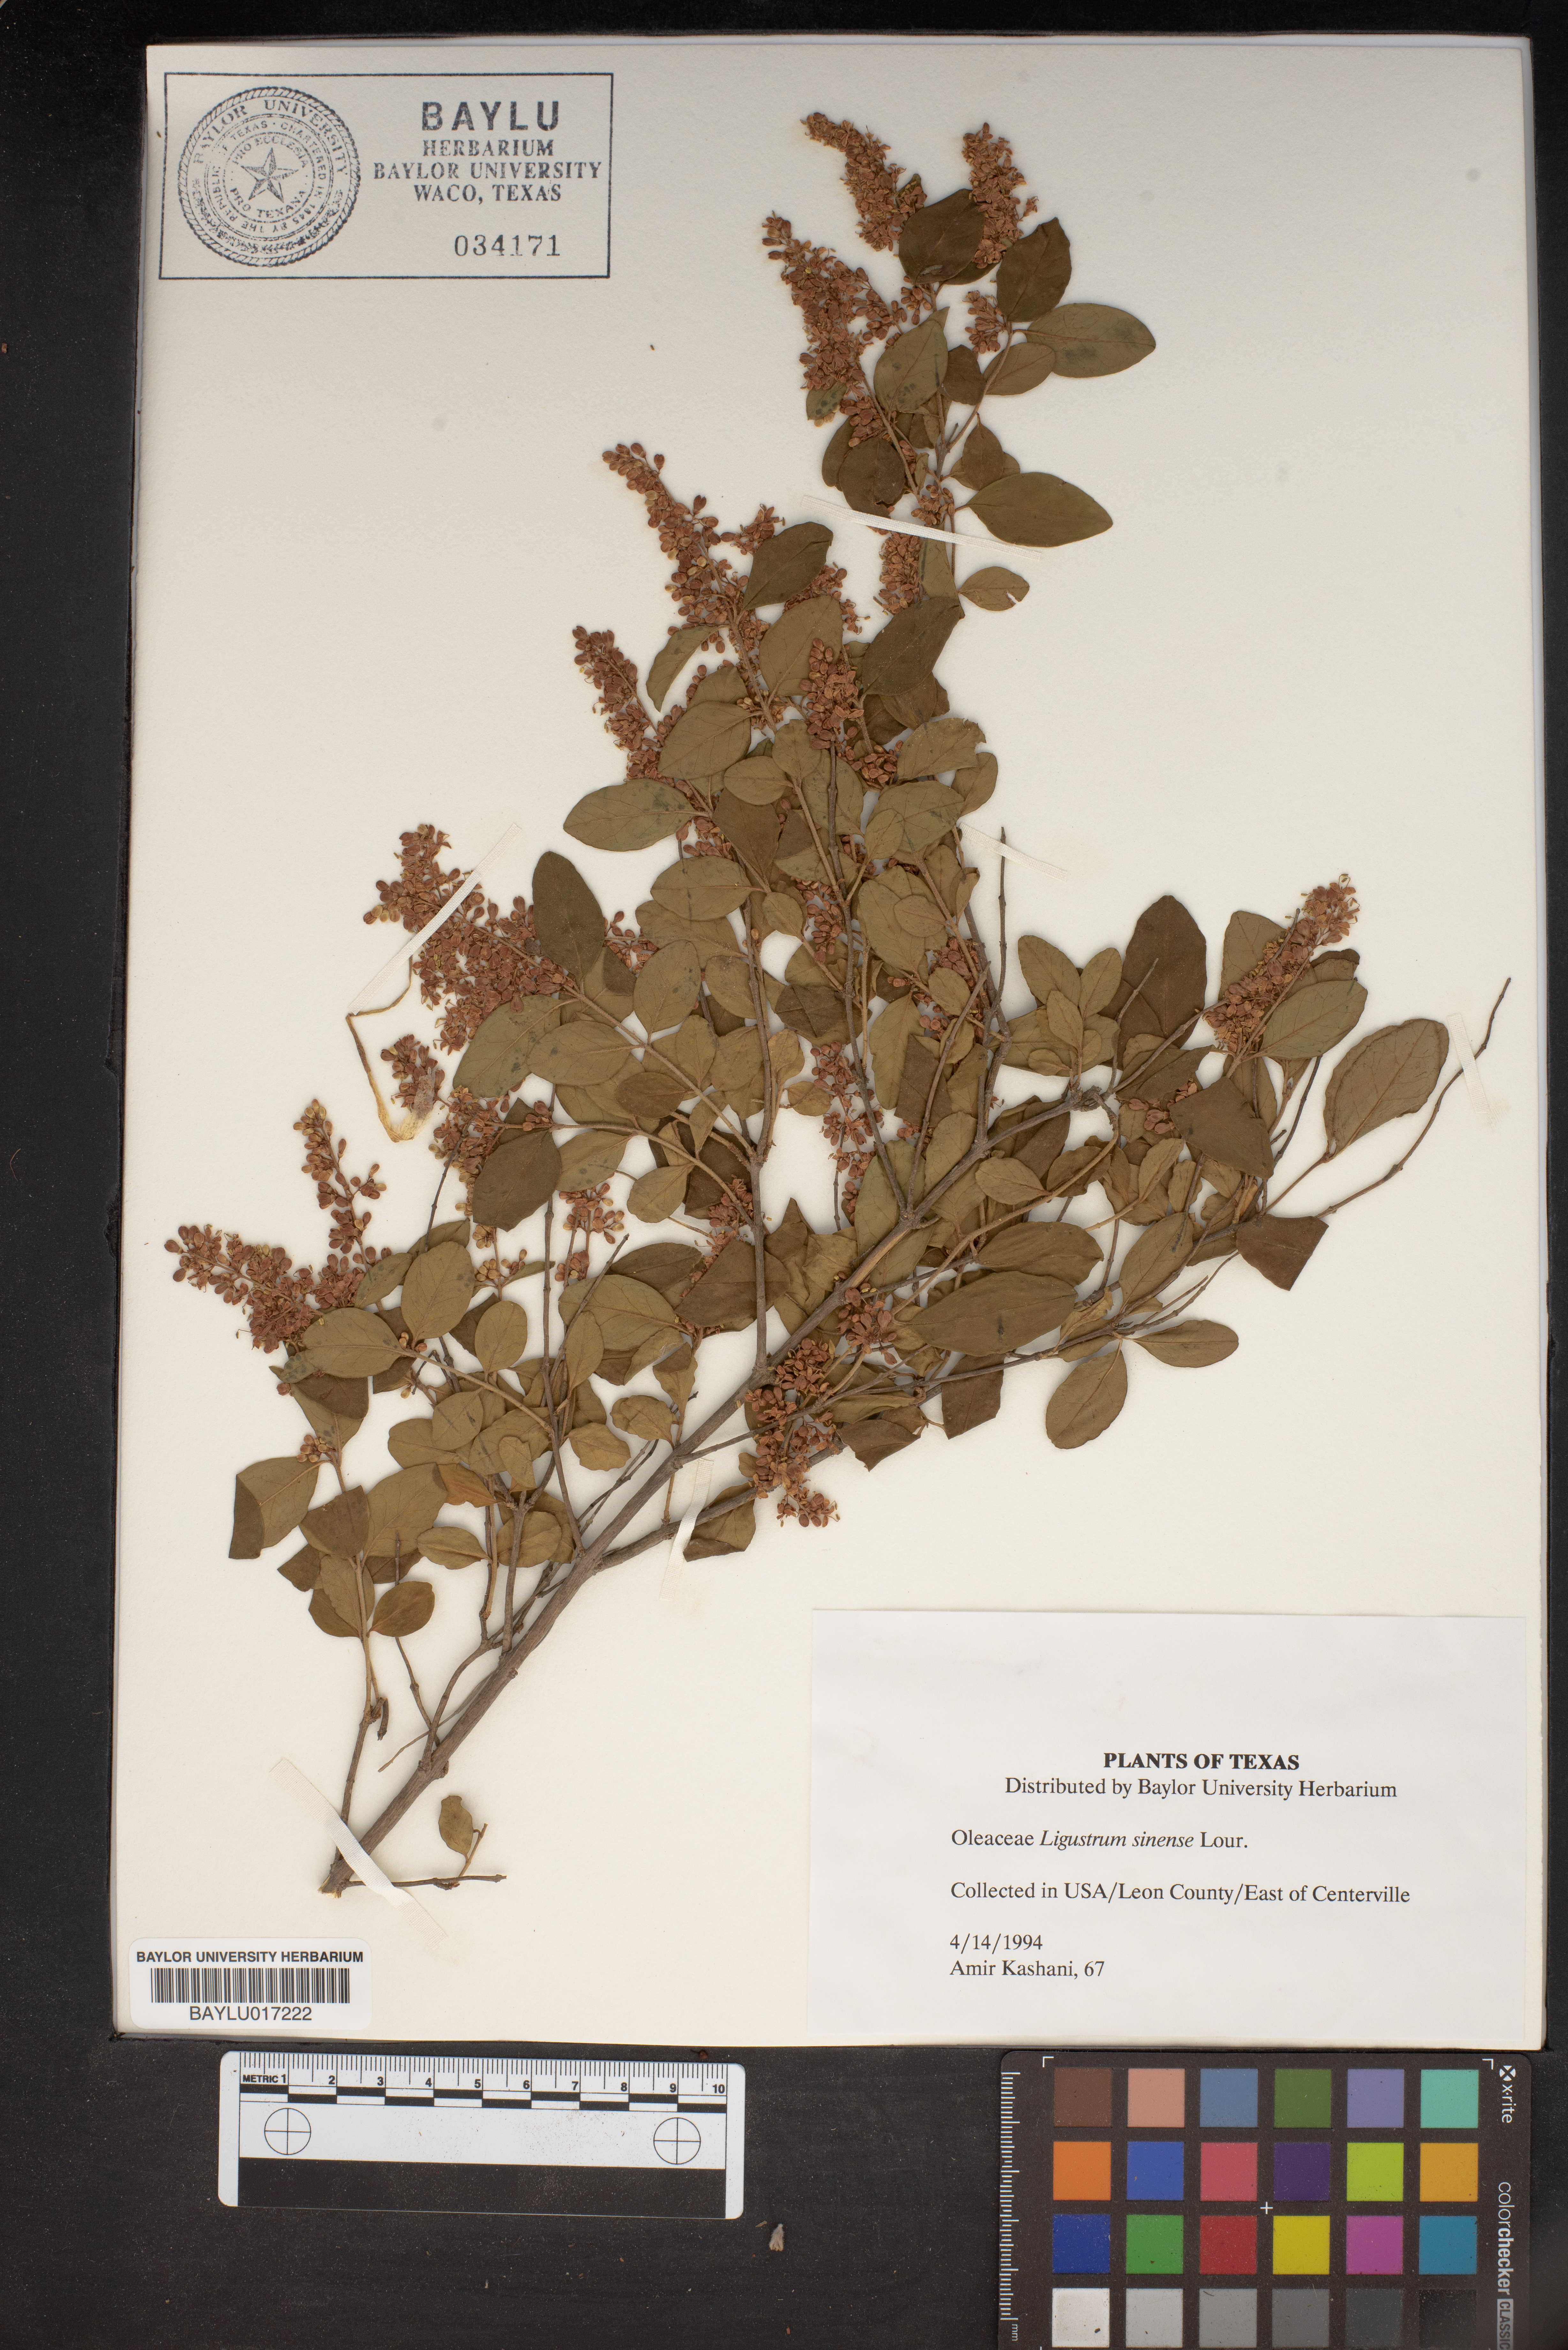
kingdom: Plantae
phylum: Tracheophyta
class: Magnoliopsida
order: Lamiales
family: Oleaceae
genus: Ligustrum
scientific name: Ligustrum sinense
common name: Chinese privet
